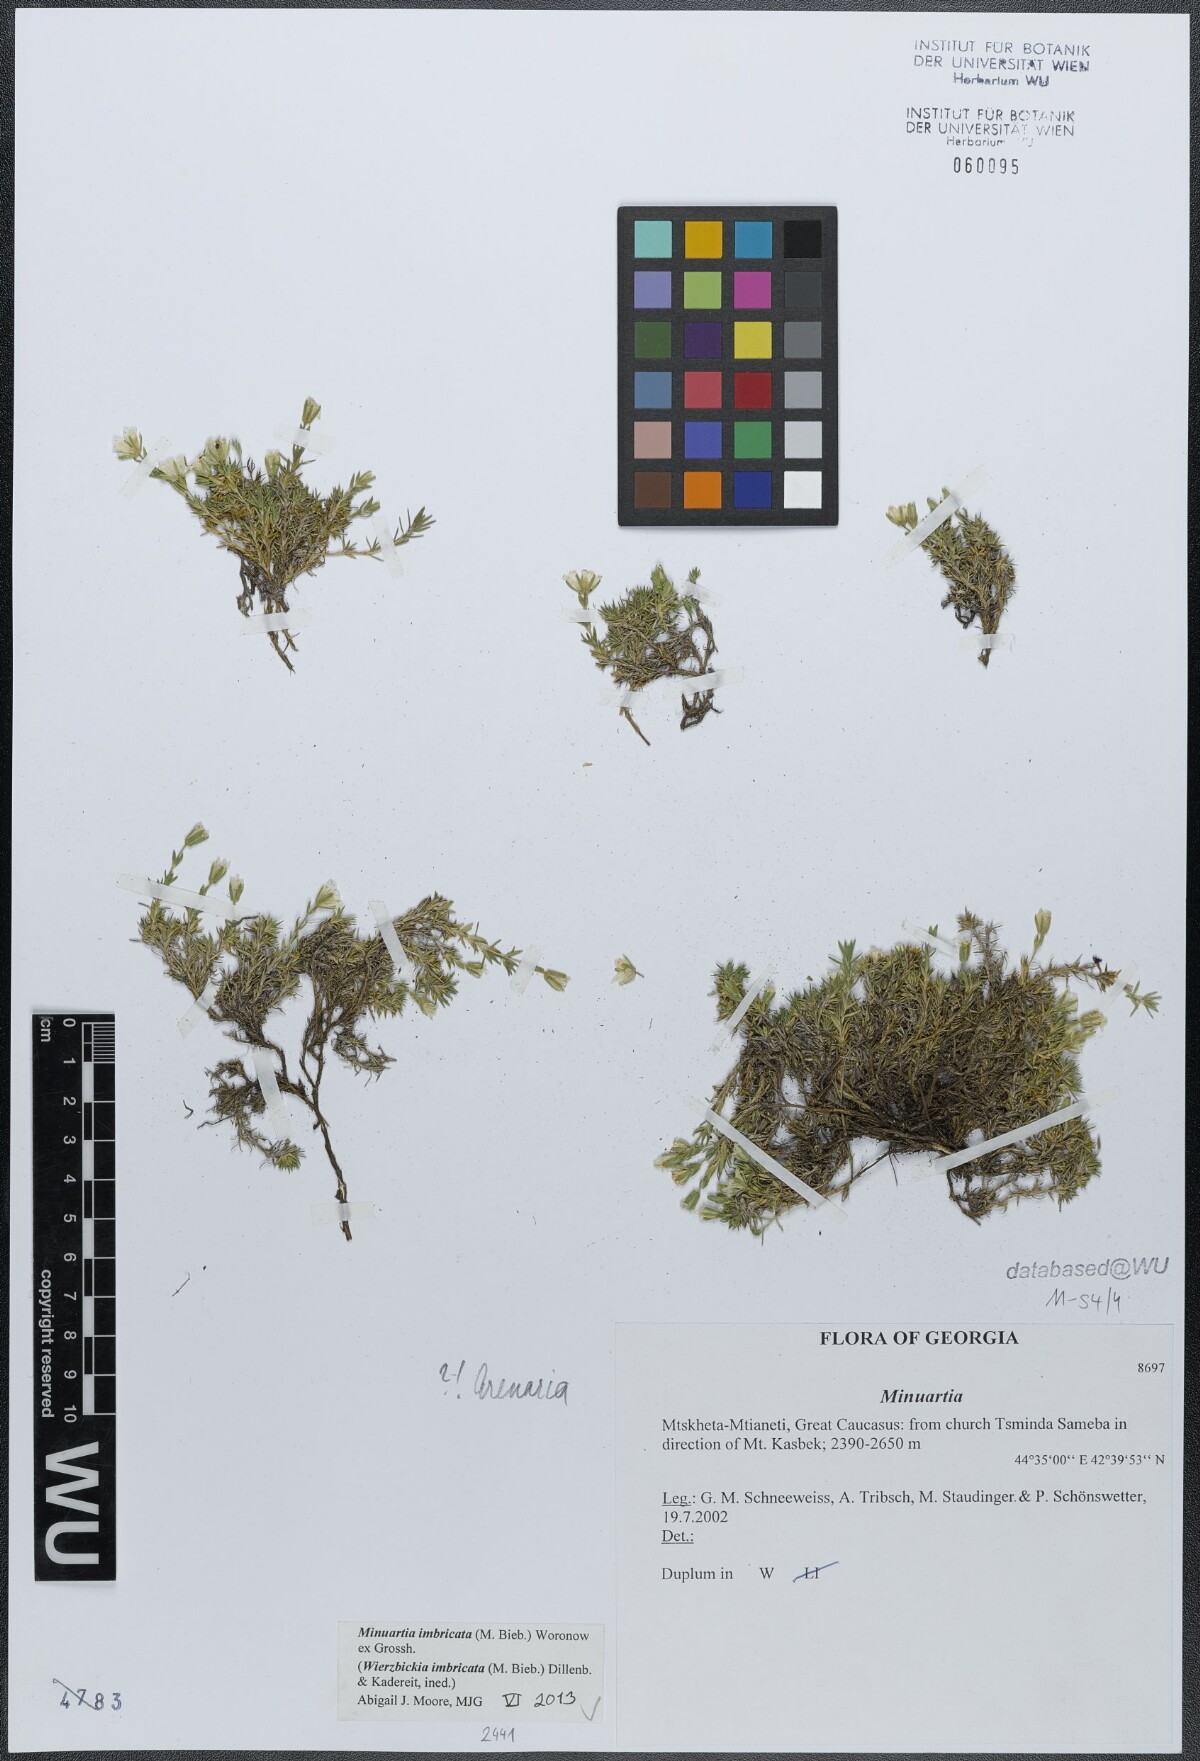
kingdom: Plantae
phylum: Tracheophyta
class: Magnoliopsida
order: Caryophyllales
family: Caryophyllaceae
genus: Pseudocherleria
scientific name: Pseudocherleria imbricata
